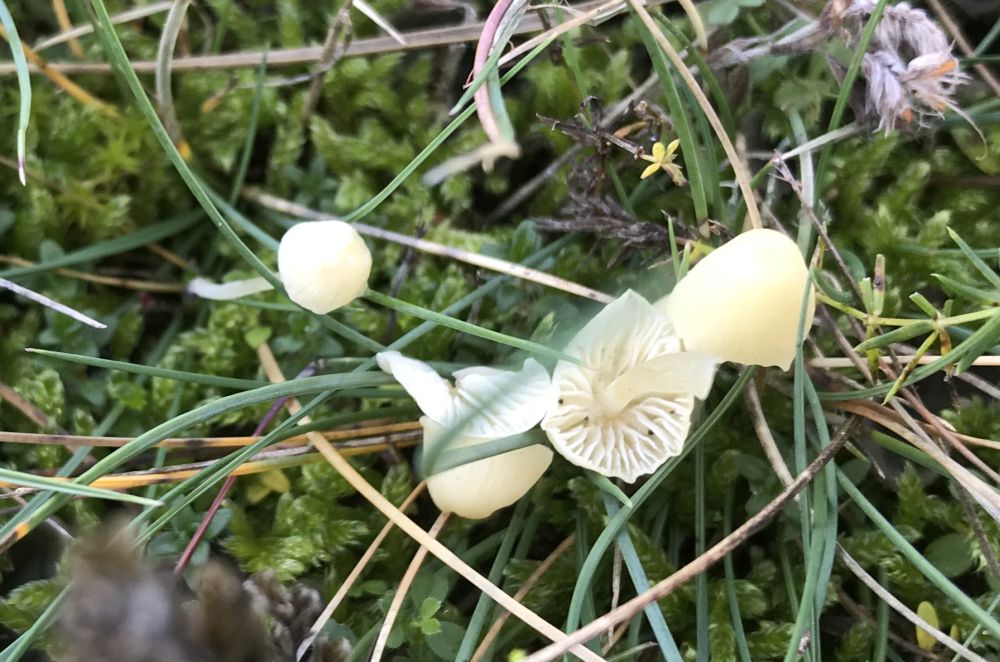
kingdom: Fungi
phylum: Basidiomycota
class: Agaricomycetes
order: Agaricales
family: Mycenaceae
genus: Atheniella
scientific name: Atheniella flavoalba
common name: gulhvid huesvamp
